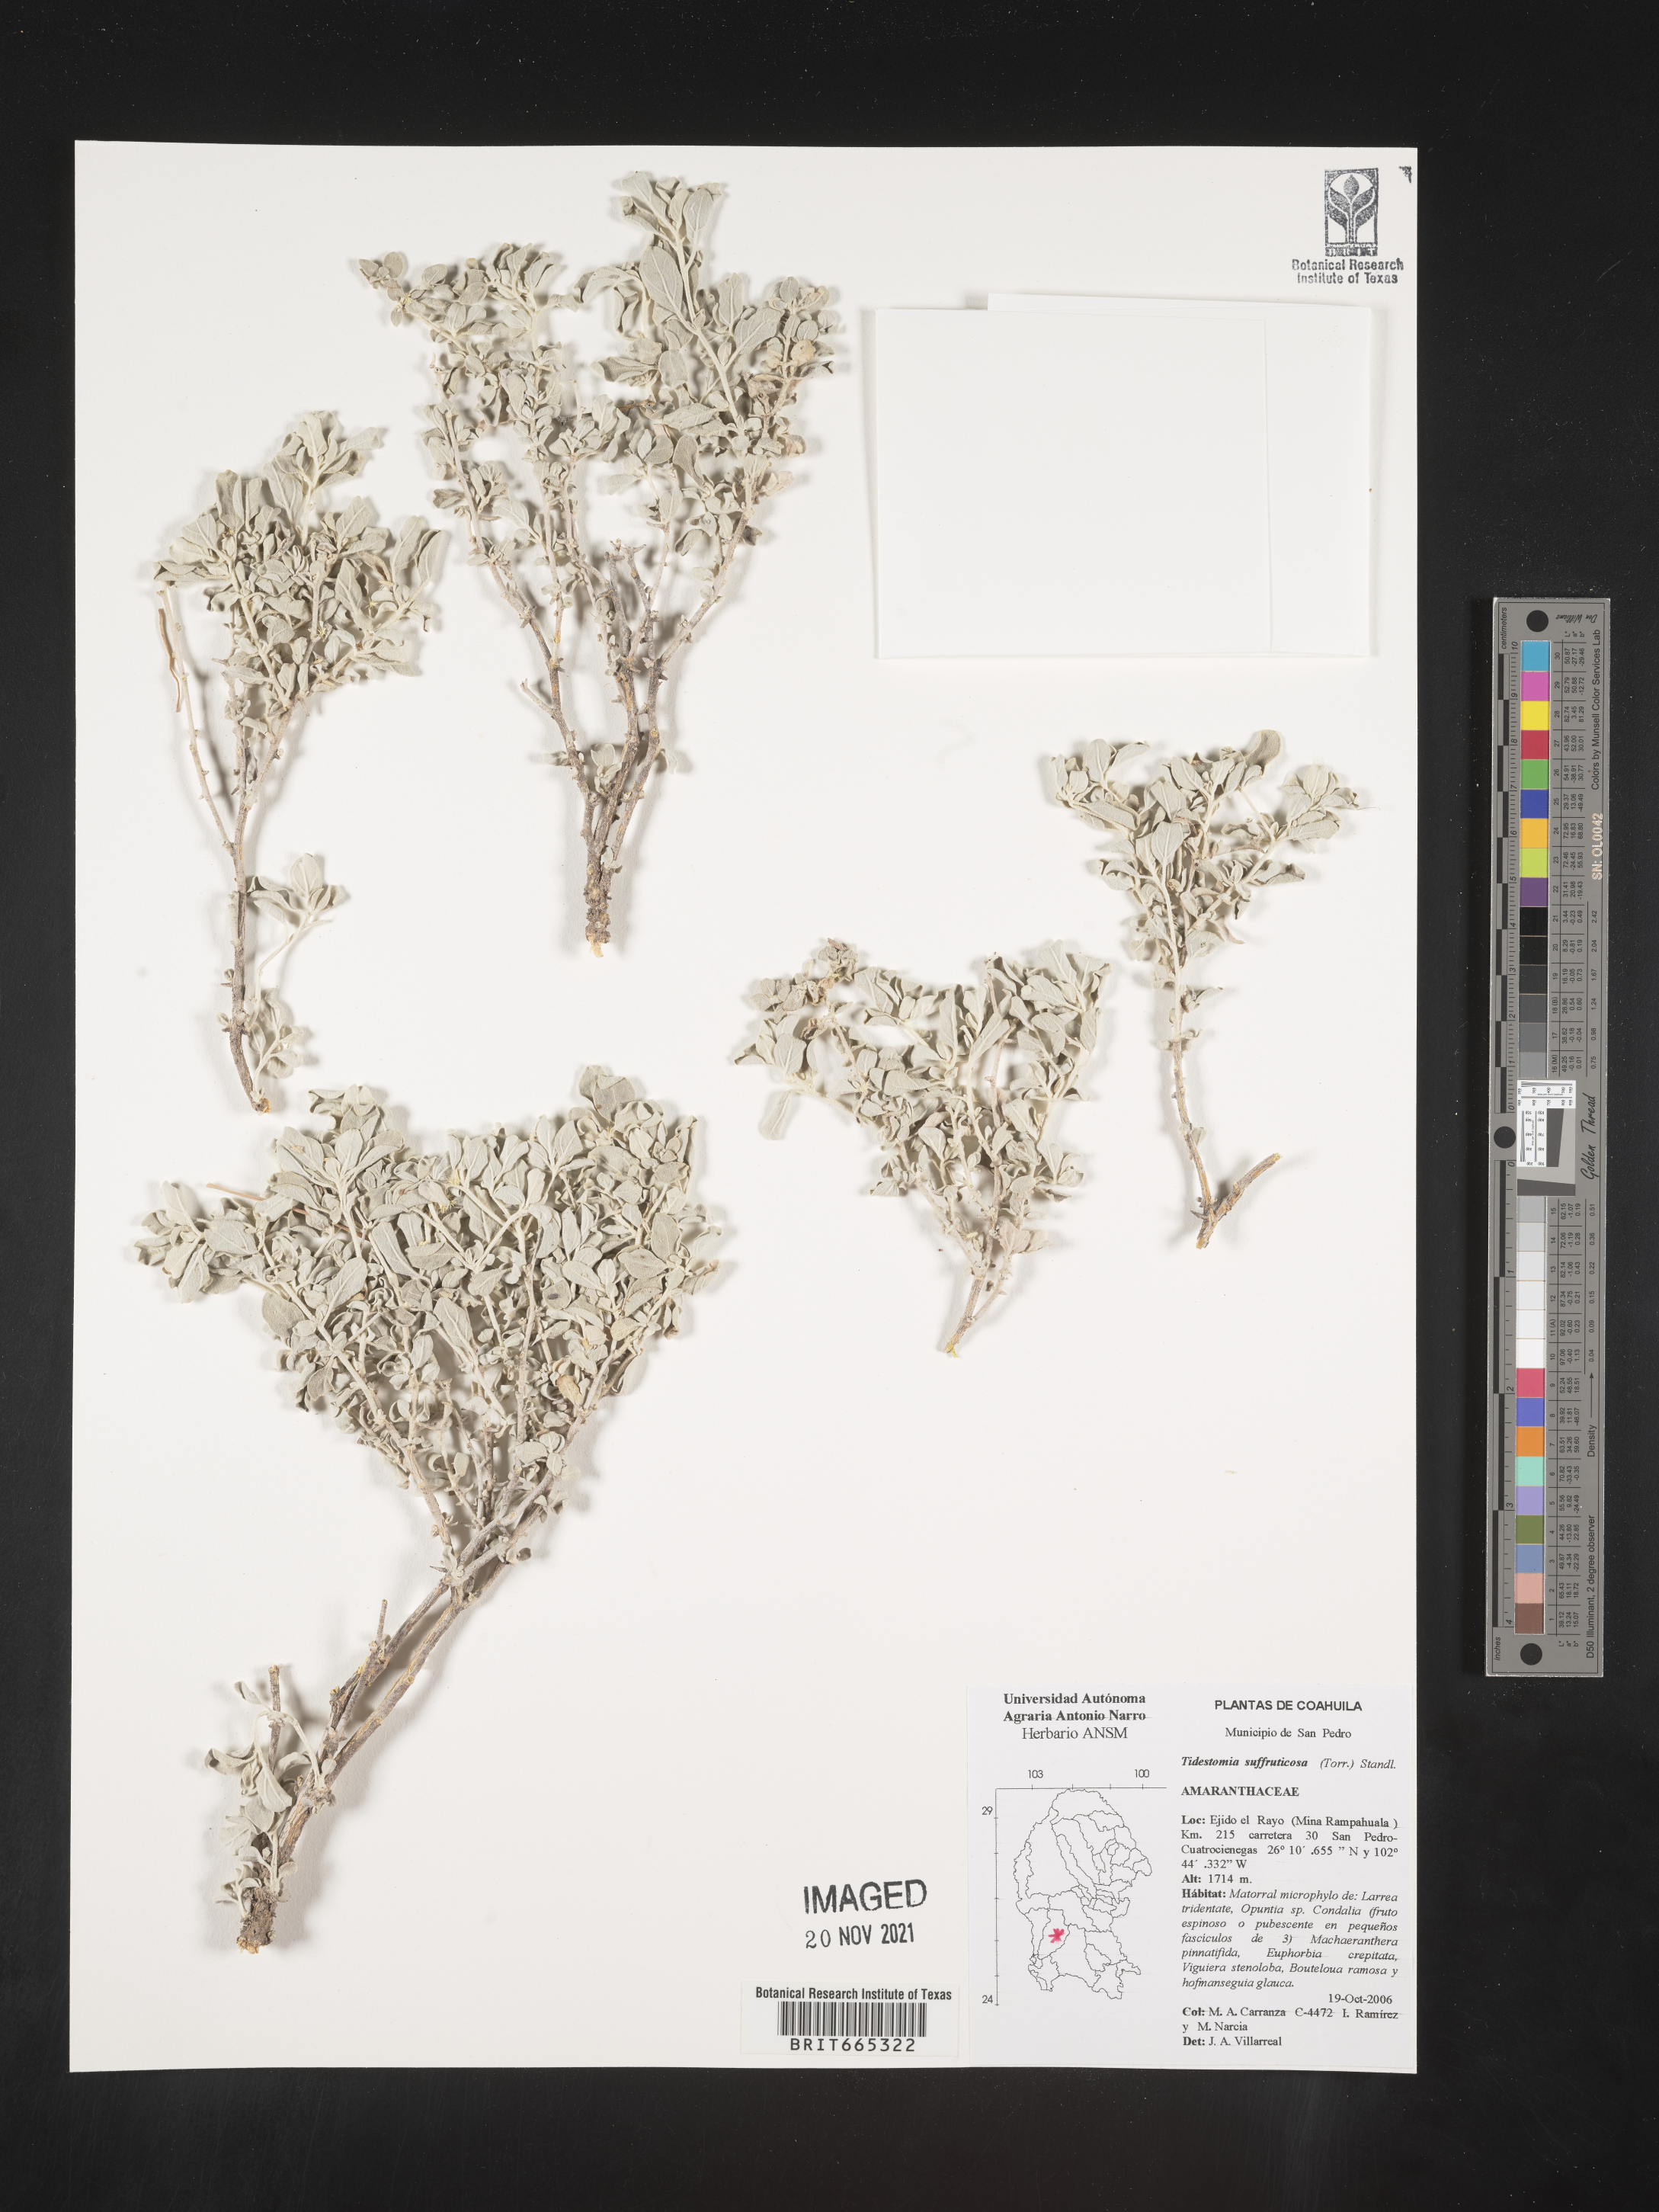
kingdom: Plantae
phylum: Tracheophyta
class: Magnoliopsida
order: Caryophyllales
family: Amaranthaceae
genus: Tidestromia
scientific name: Tidestromia
